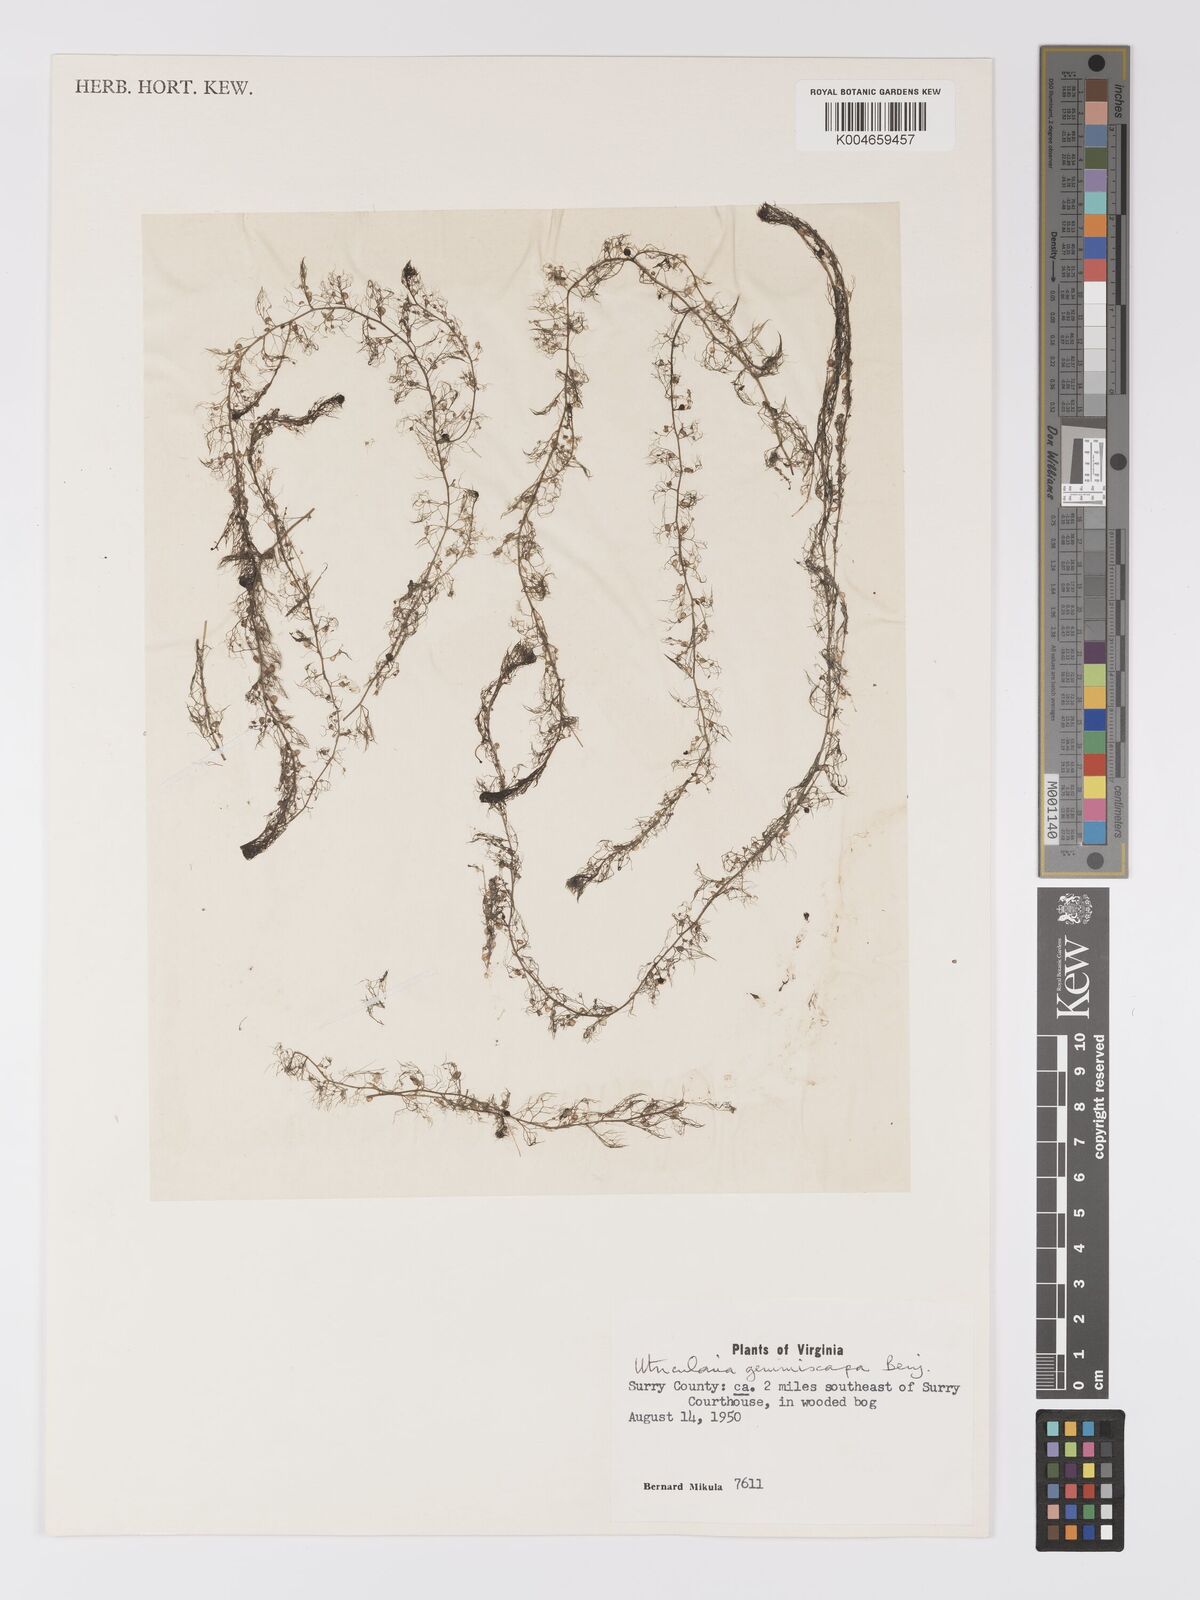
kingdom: Plantae
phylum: Tracheophyta
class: Magnoliopsida
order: Lamiales
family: Lentibulariaceae
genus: Utricularia
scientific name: Utricularia geminiscapa
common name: Hidden-fruit bladderwort
